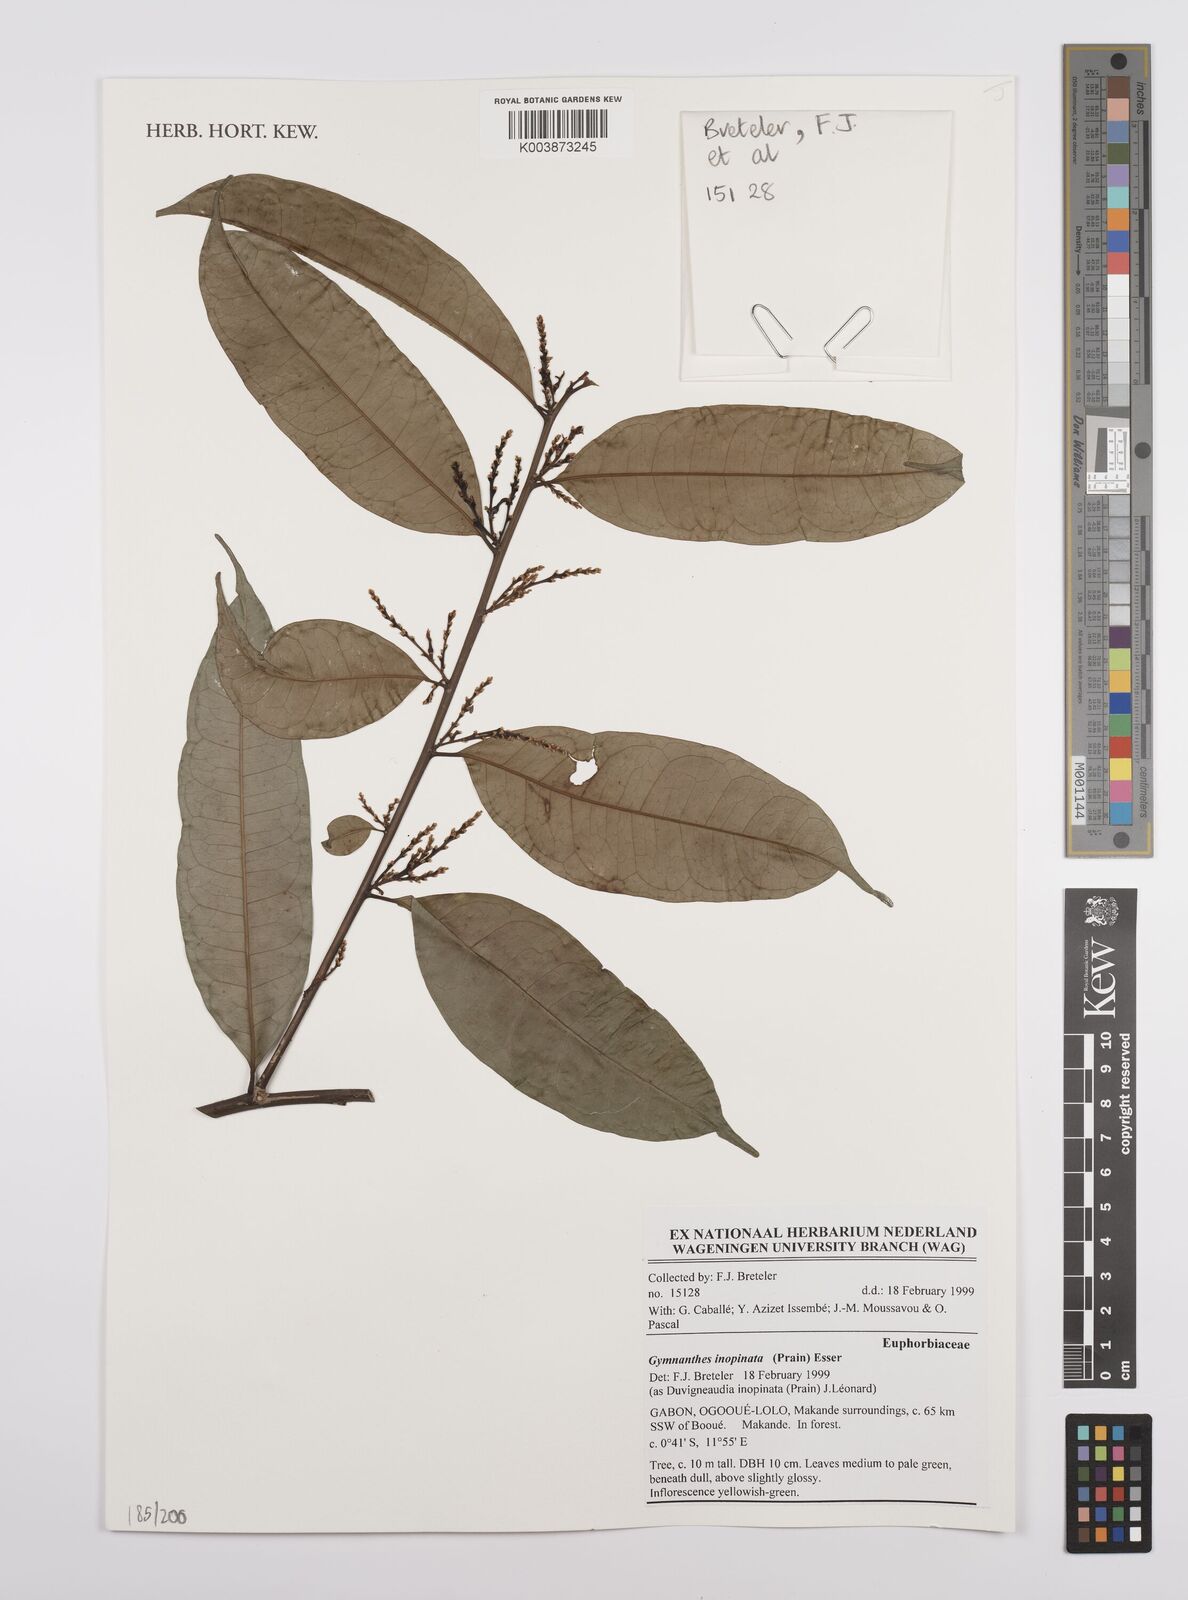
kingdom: Plantae
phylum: Tracheophyta
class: Magnoliopsida
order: Malpighiales
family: Euphorbiaceae
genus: Gymnanthes
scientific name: Gymnanthes inopinata
